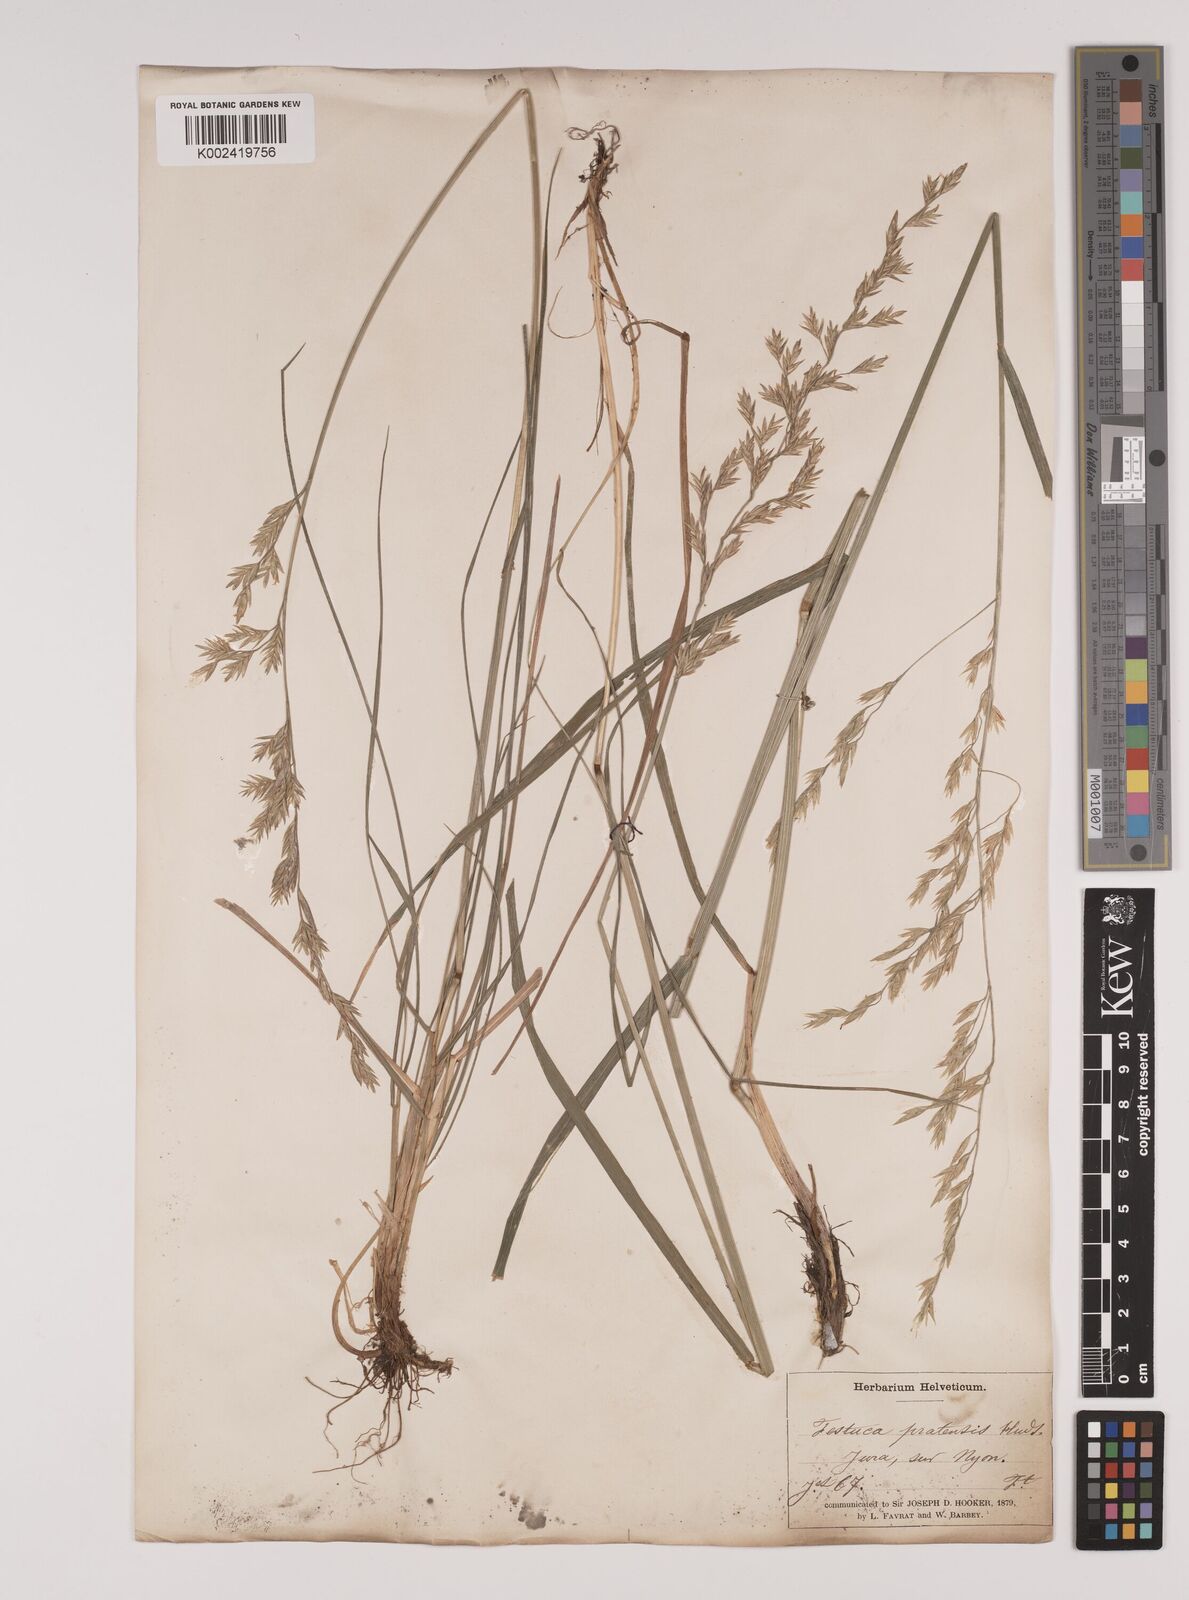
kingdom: Plantae
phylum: Tracheophyta
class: Liliopsida
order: Poales
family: Poaceae
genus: Lolium
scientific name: Lolium pratense
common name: Dover grass
